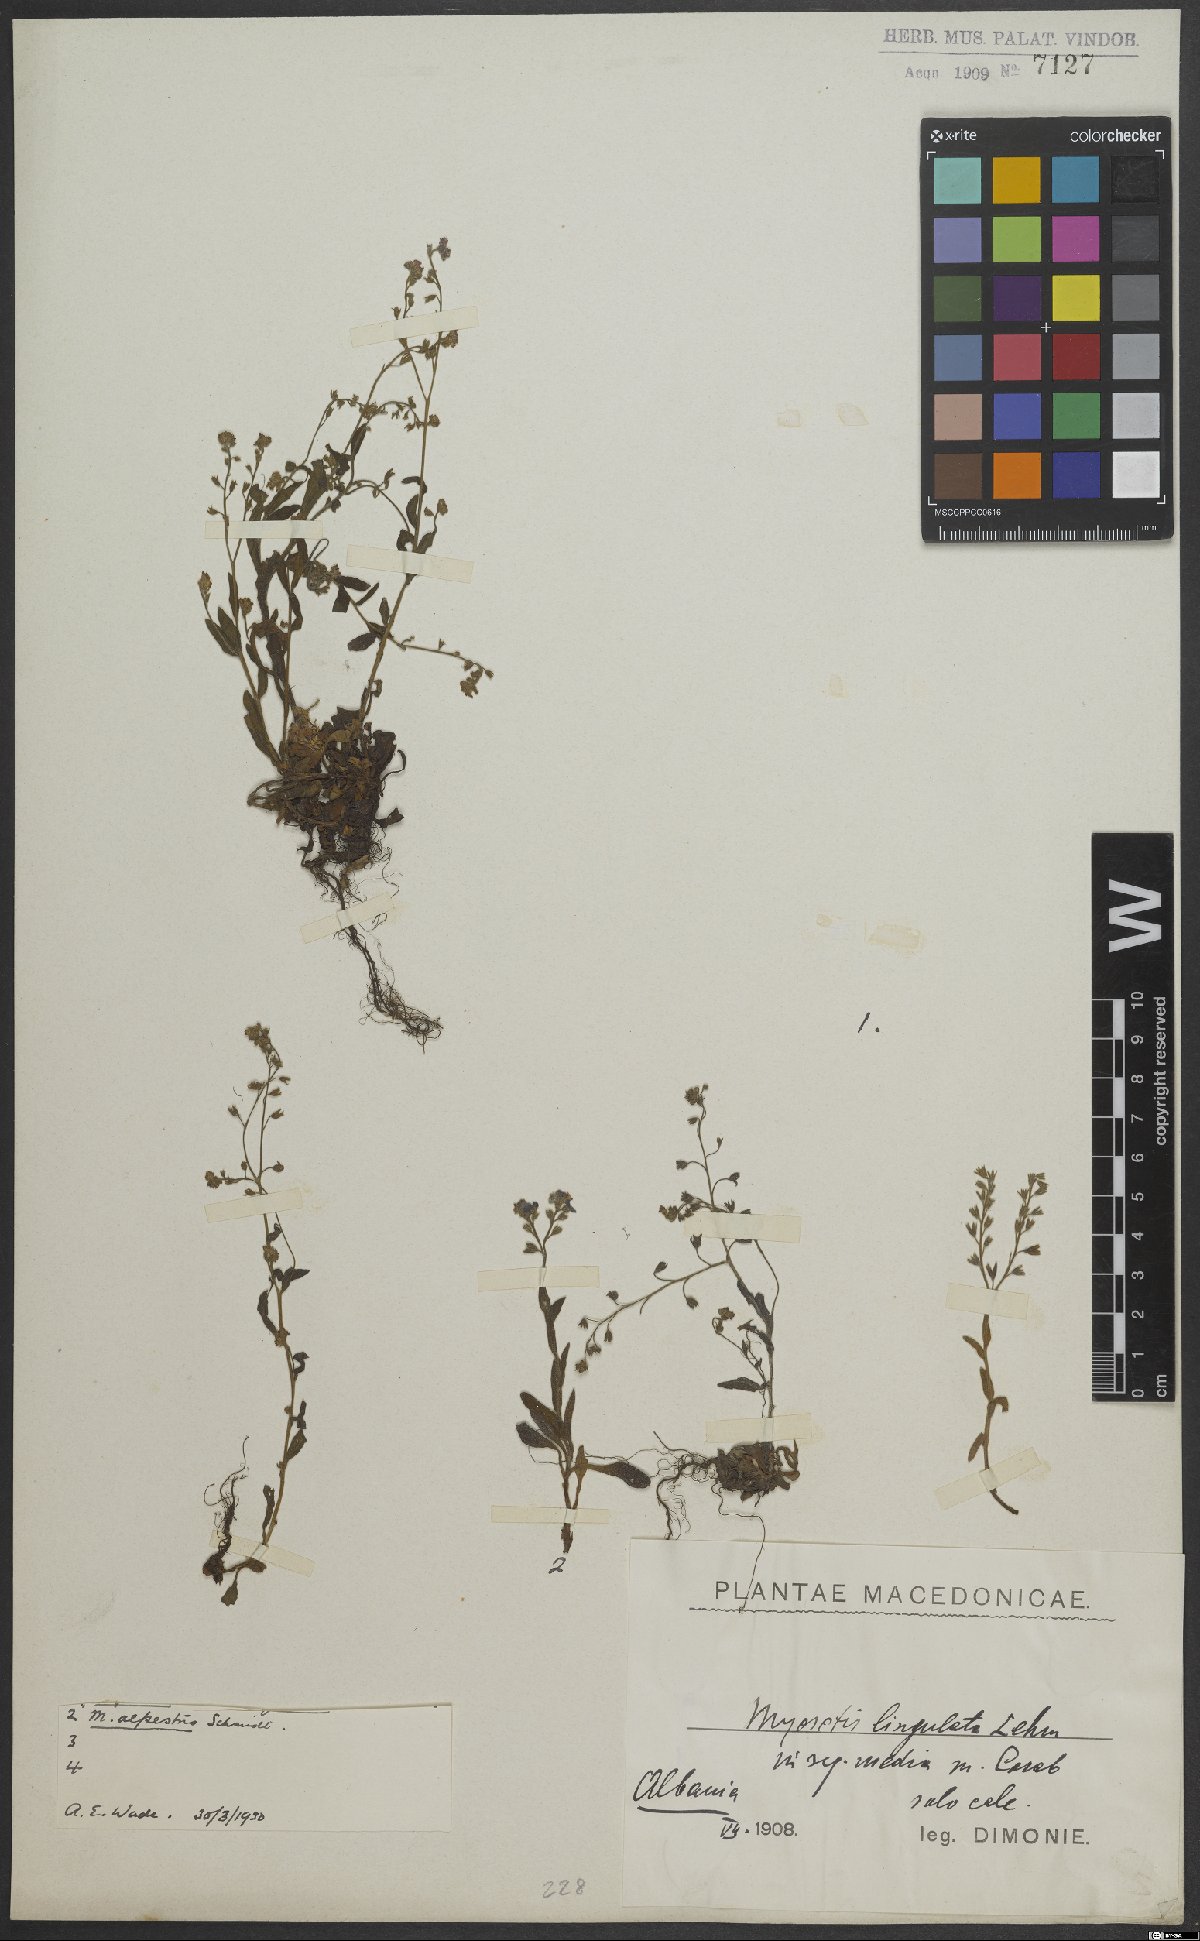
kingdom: Plantae
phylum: Tracheophyta
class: Magnoliopsida
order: Boraginales
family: Boraginaceae
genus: Myosotis
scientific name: Myosotis arvensis
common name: Field forget-me-not
